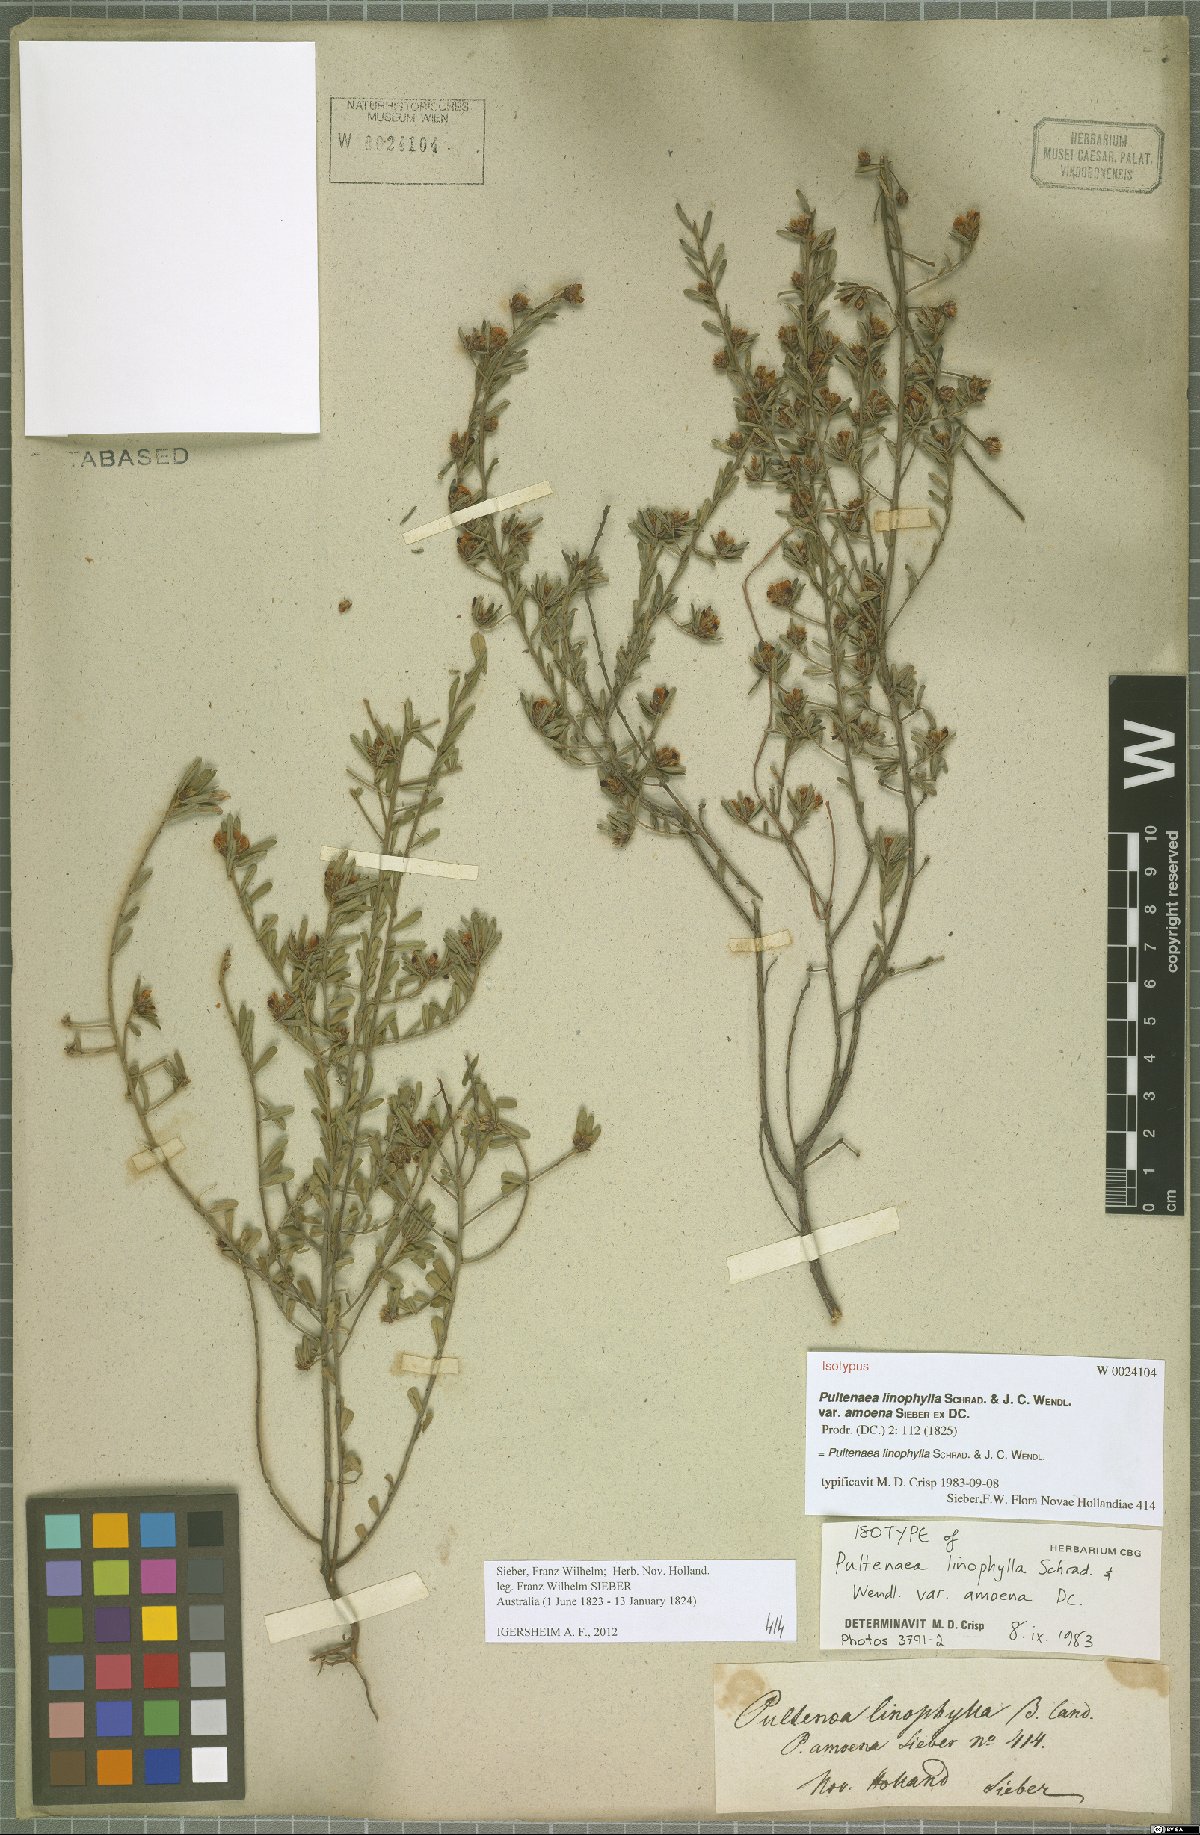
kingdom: Plantae
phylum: Tracheophyta
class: Magnoliopsida
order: Fabales
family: Fabaceae
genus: Pultenaea
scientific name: Pultenaea linophylla
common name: Halo bush-pea
